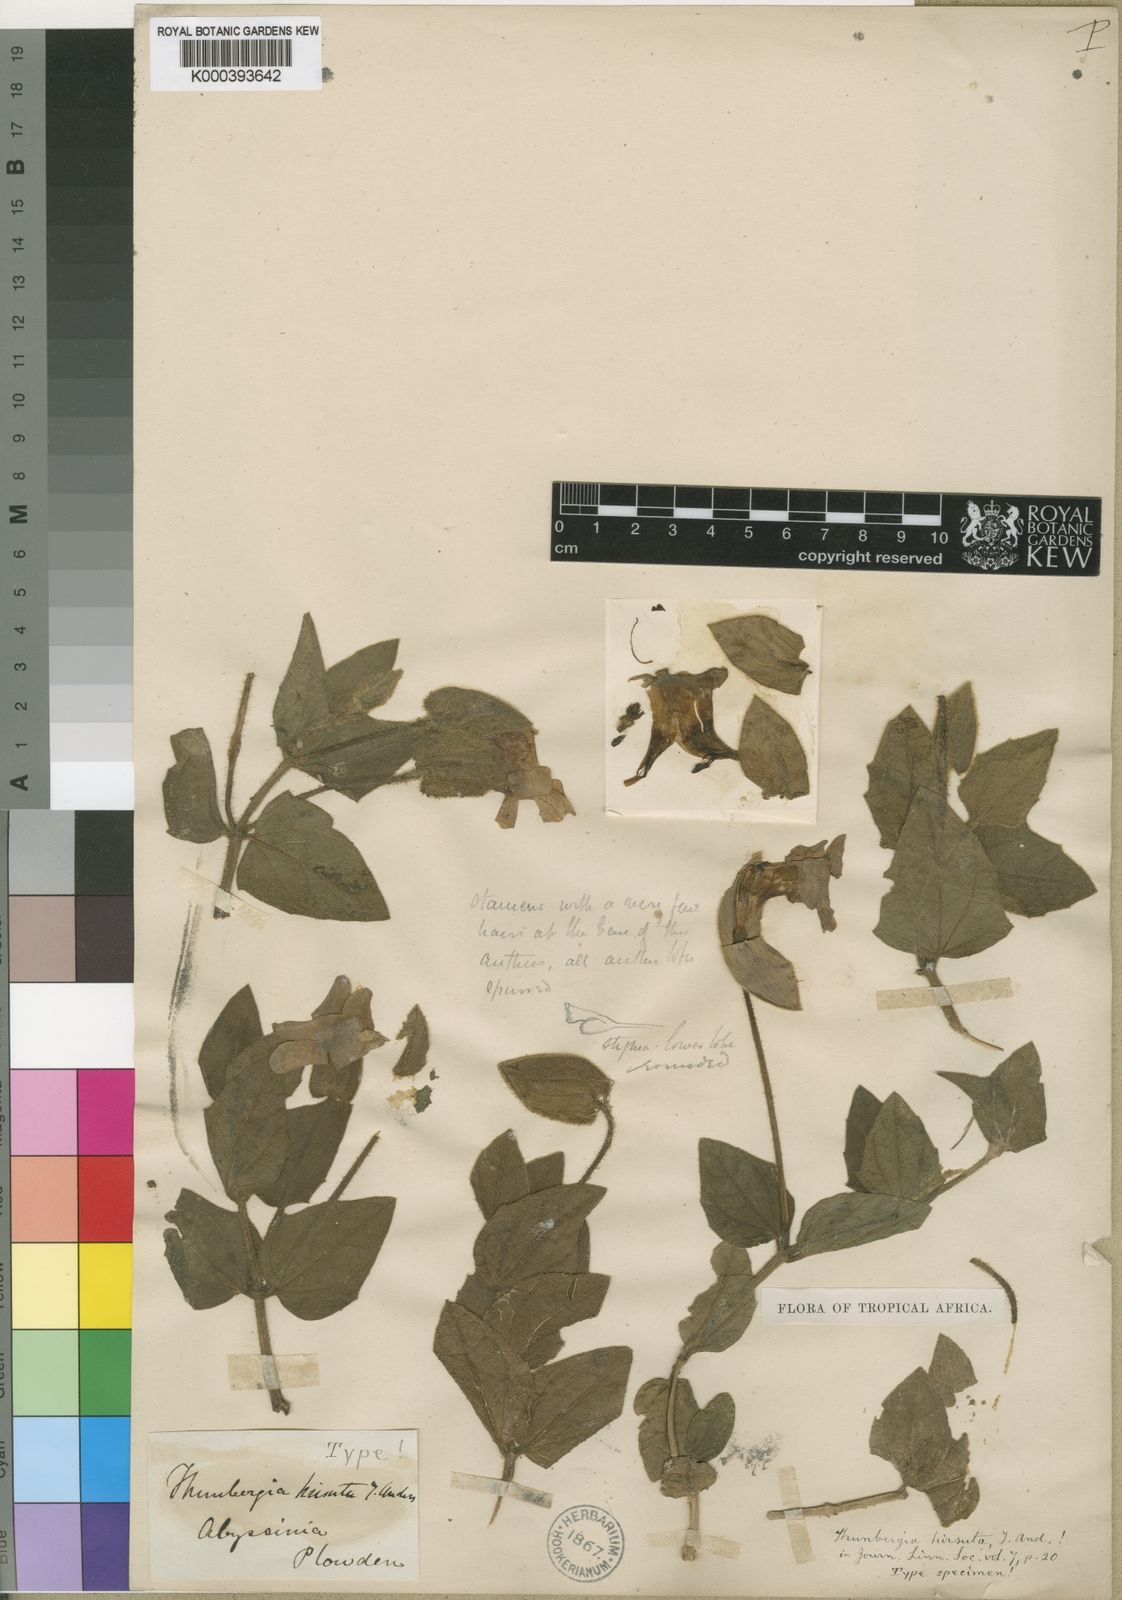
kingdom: Plantae
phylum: Tracheophyta
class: Magnoliopsida
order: Lamiales
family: Acanthaceae
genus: Thunbergia
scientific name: Thunbergia hirsuta
